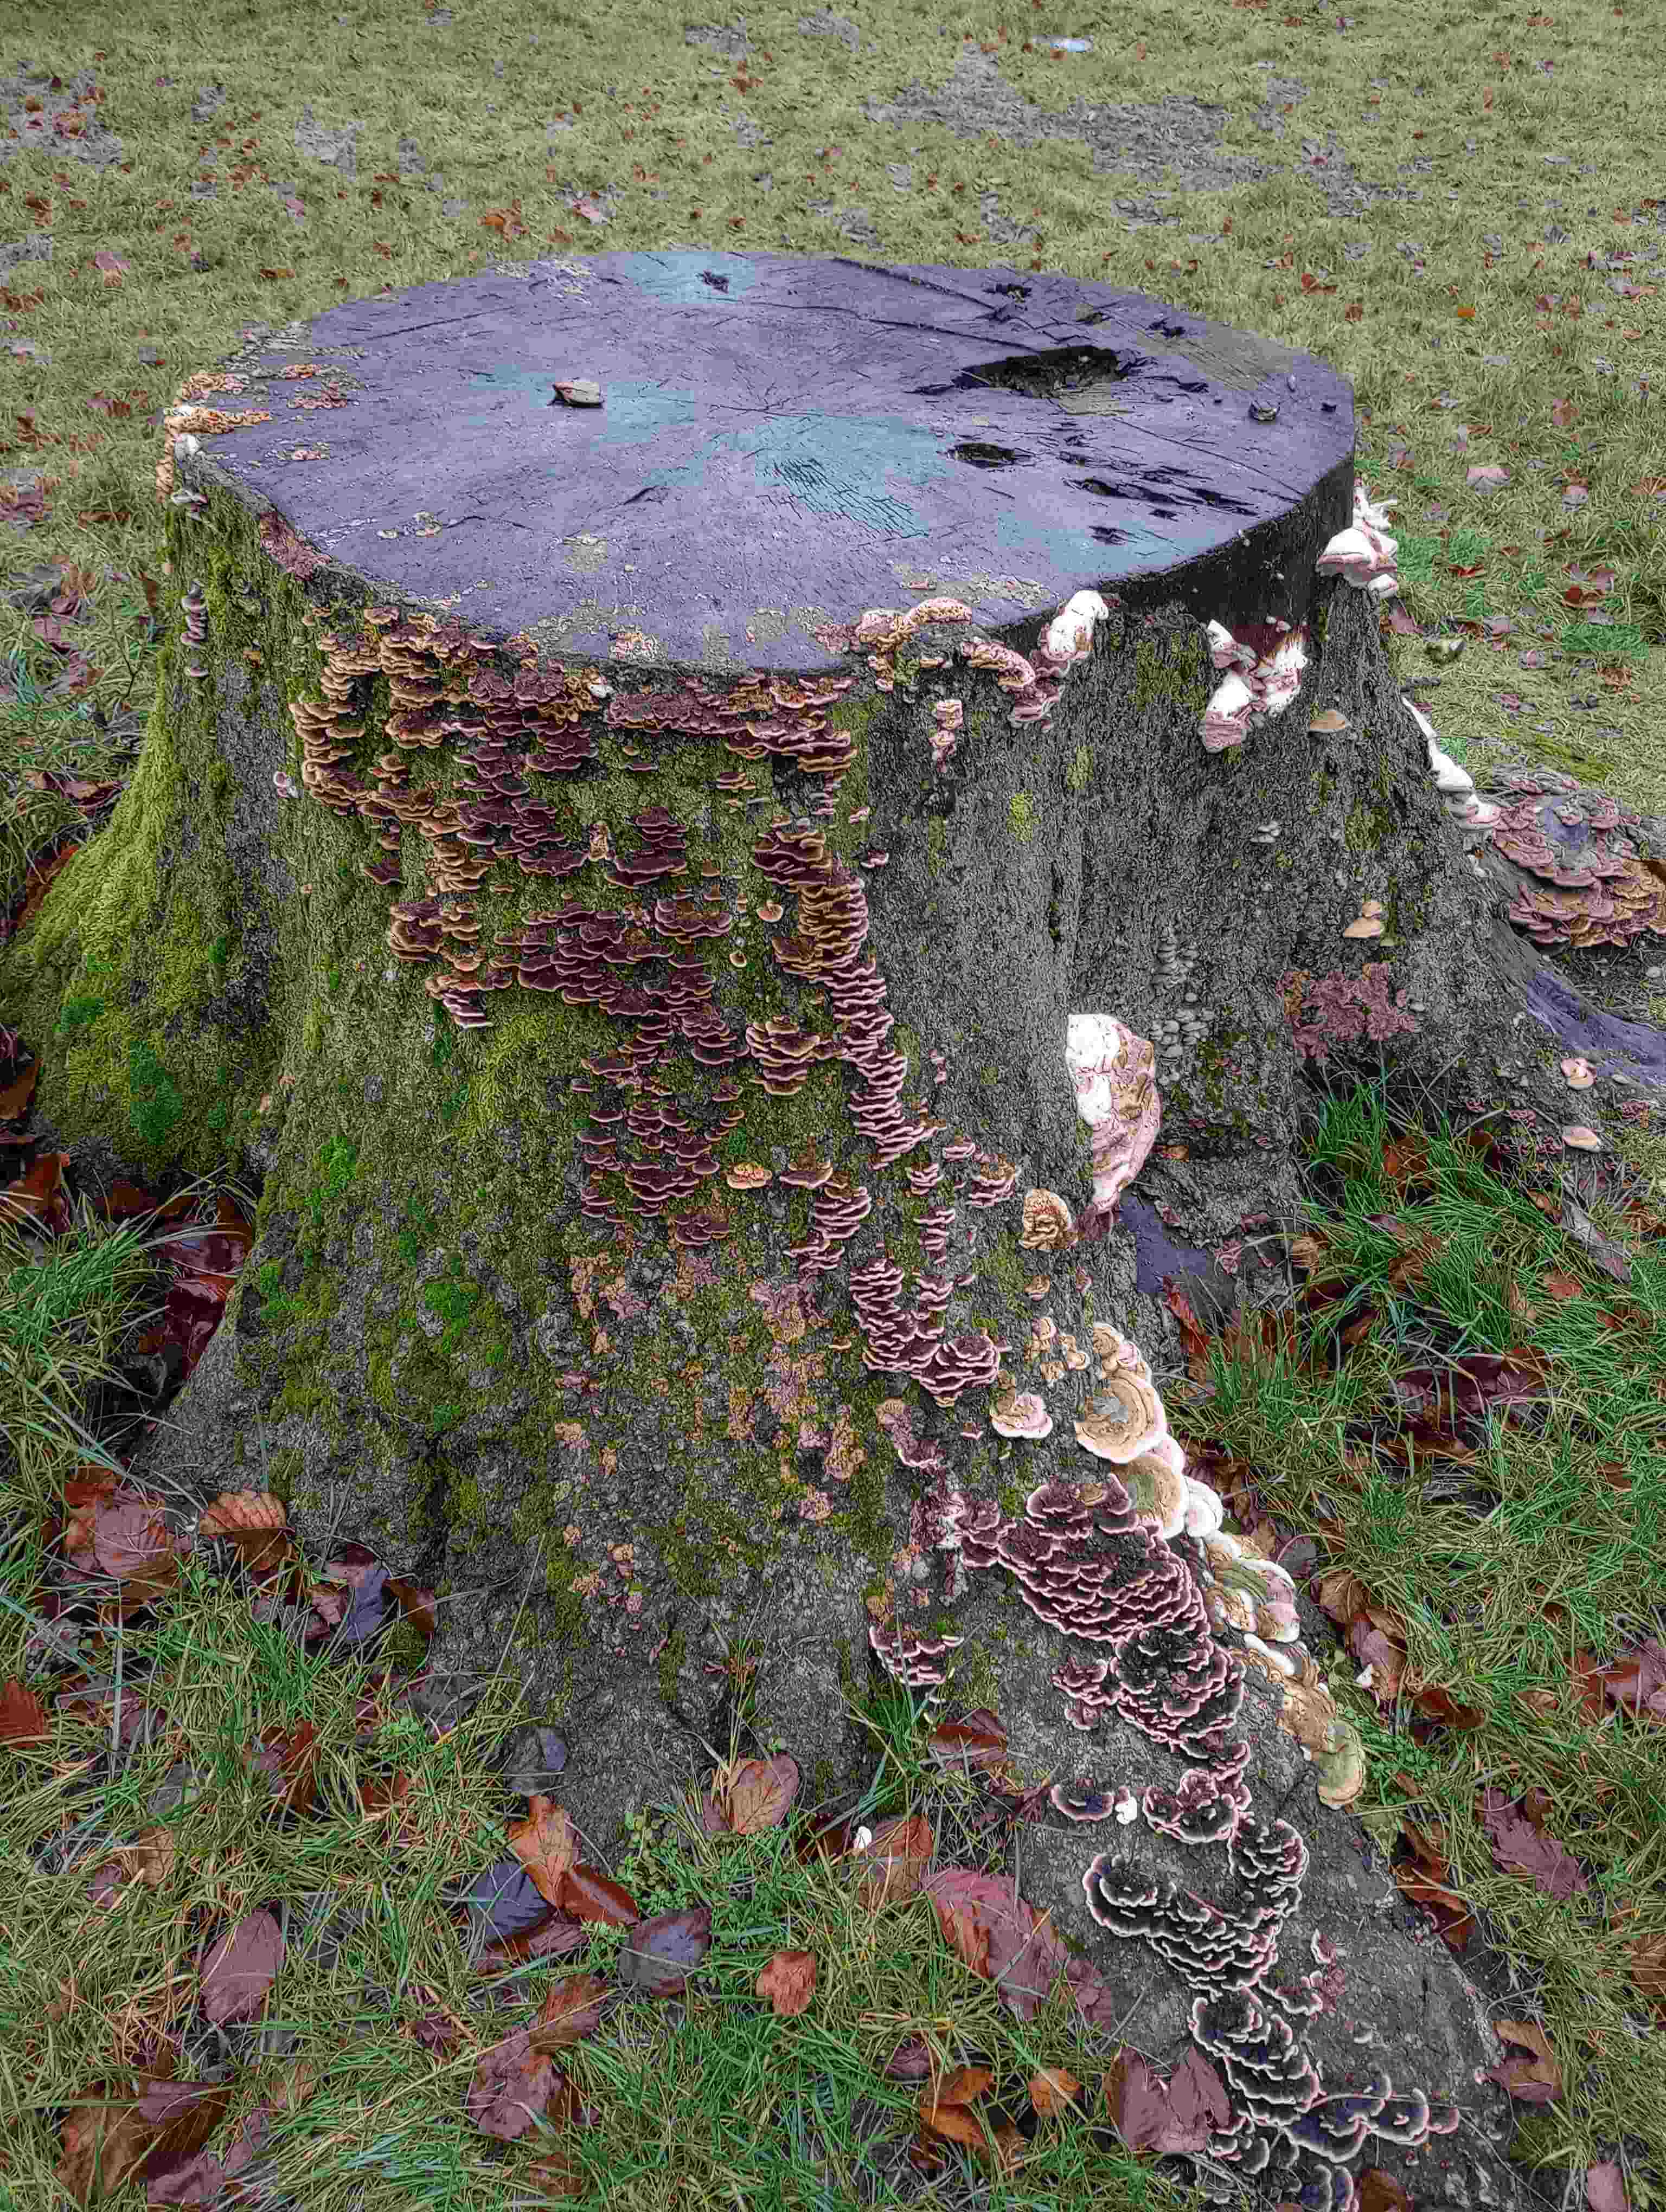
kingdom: Fungi
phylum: Basidiomycota
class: Agaricomycetes
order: Polyporales
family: Polyporaceae
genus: Trametes
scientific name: Trametes versicolor
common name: broget læderporesvamp
